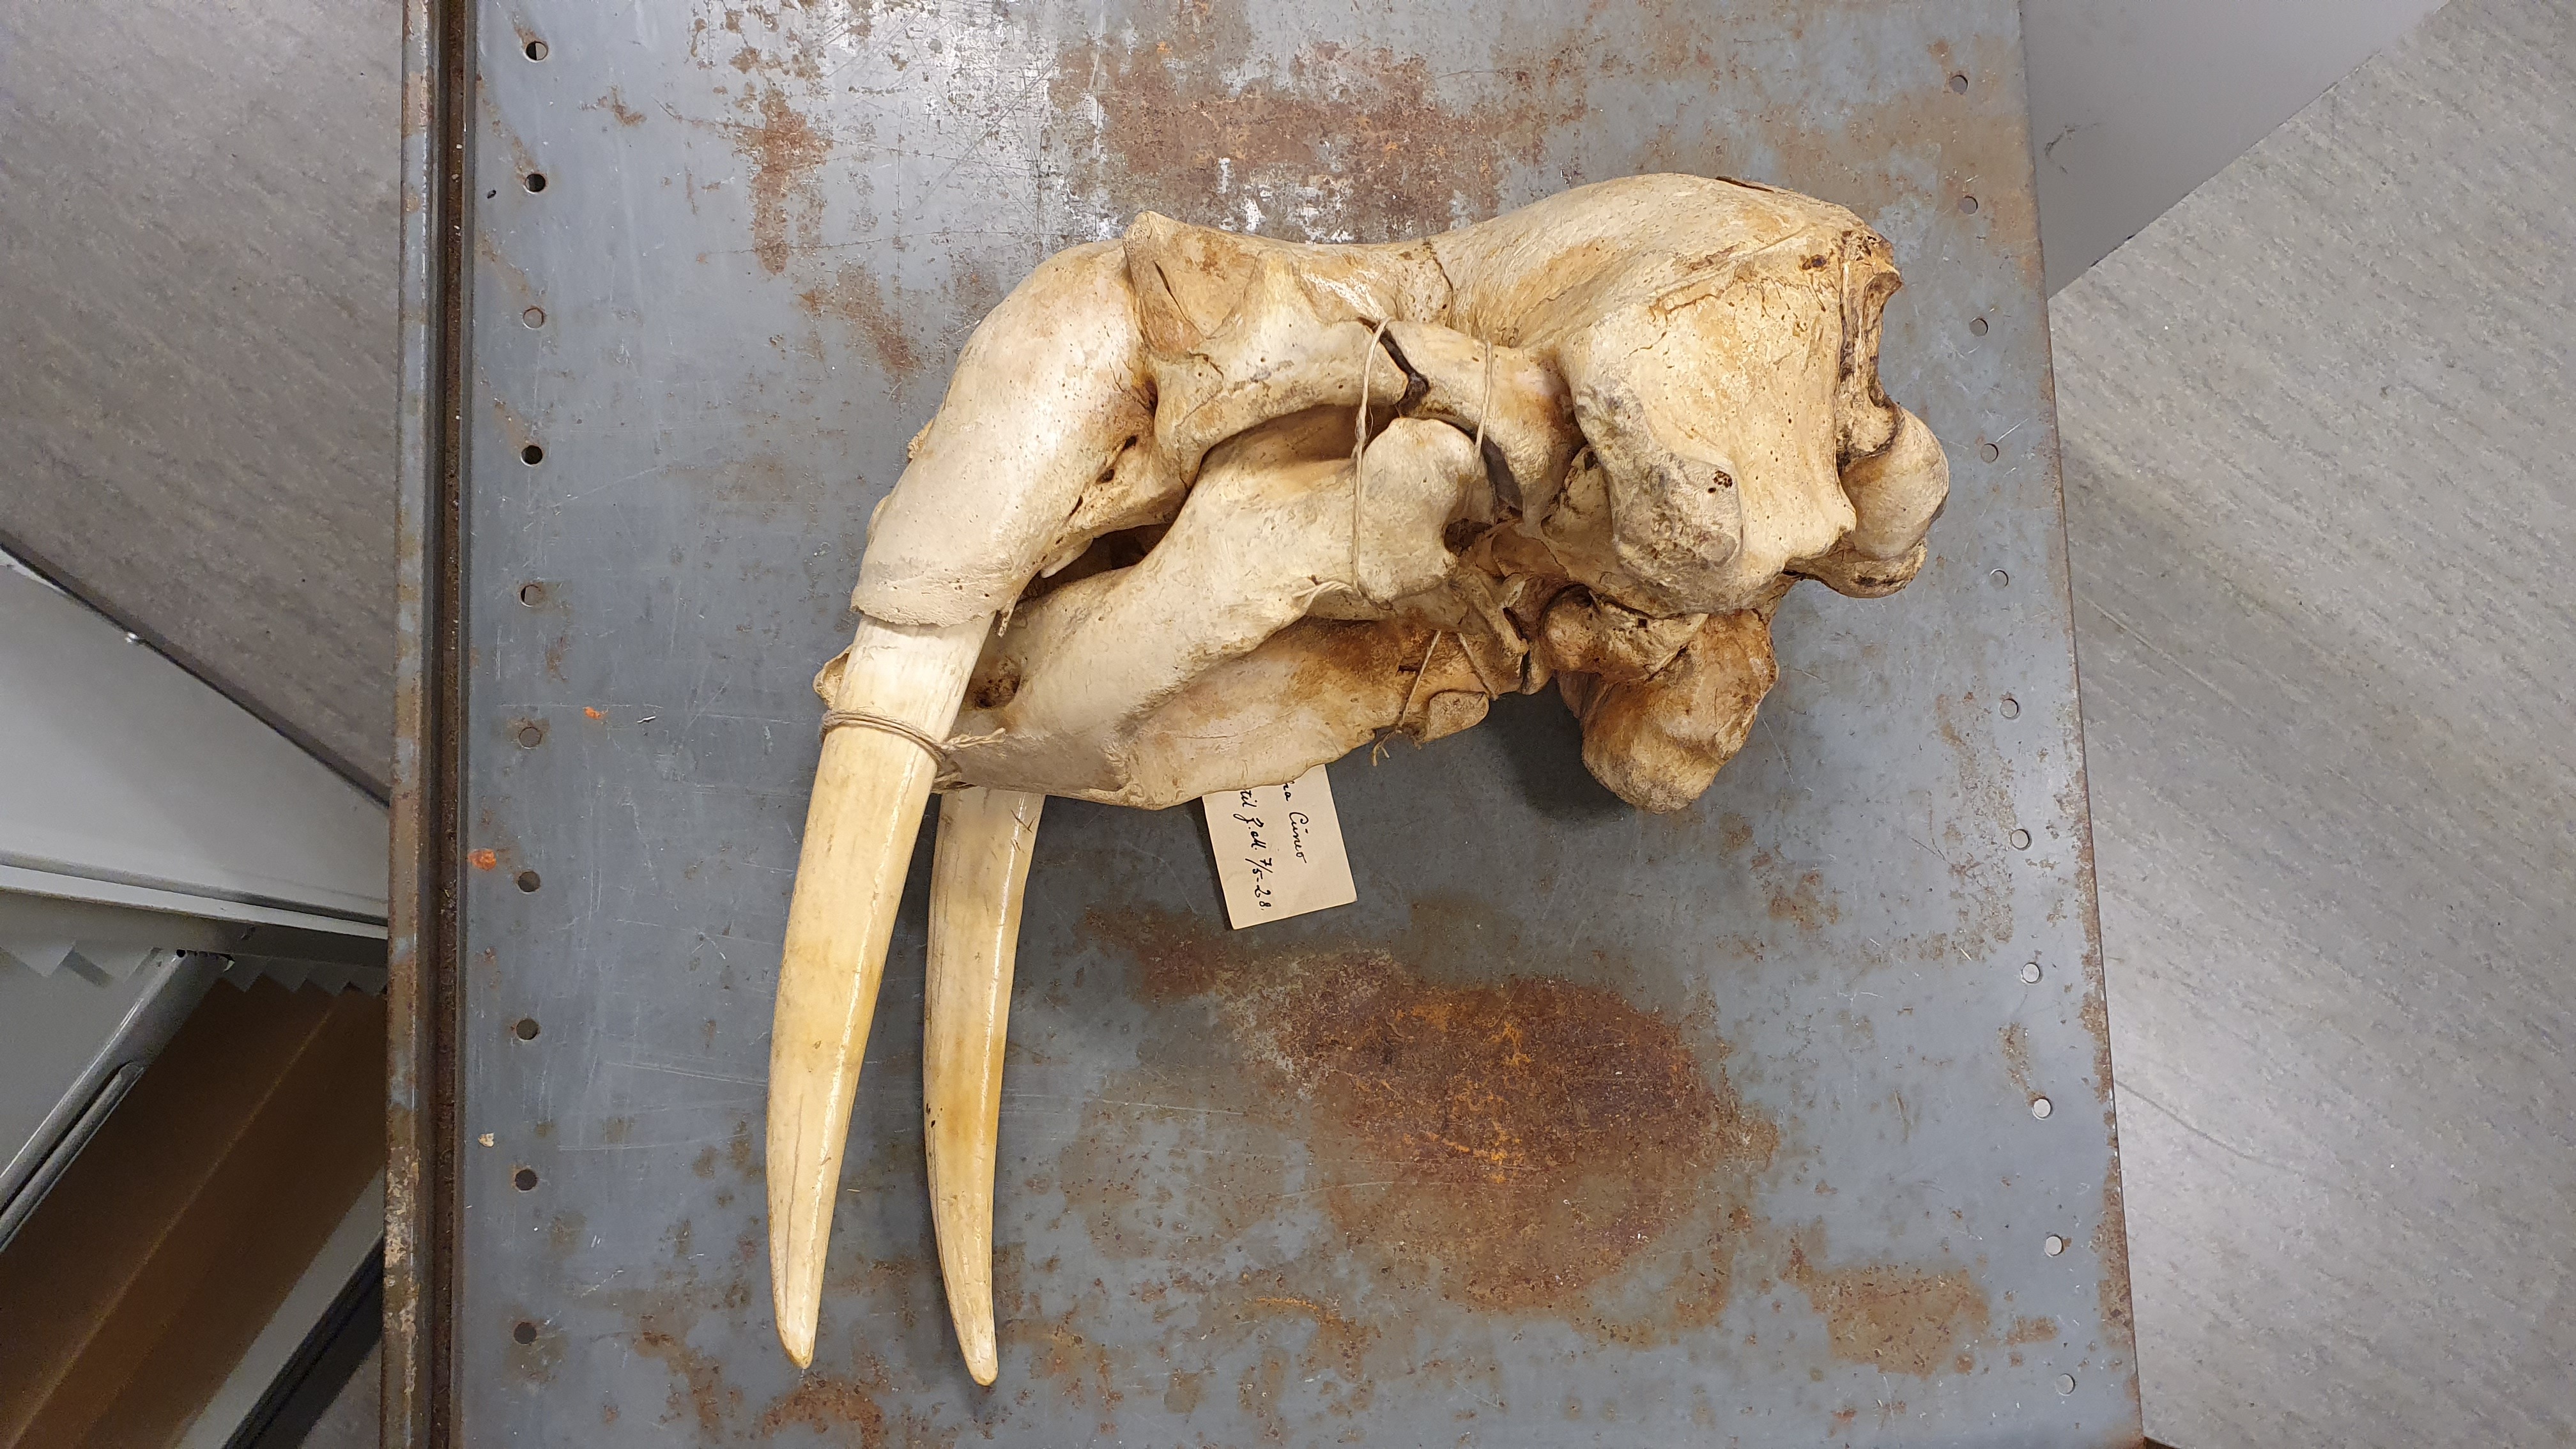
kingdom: Animalia
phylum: Chordata
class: Mammalia
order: Carnivora
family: Odobenidae
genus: Odobenus
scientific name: Odobenus rosmarus
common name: Walrus
